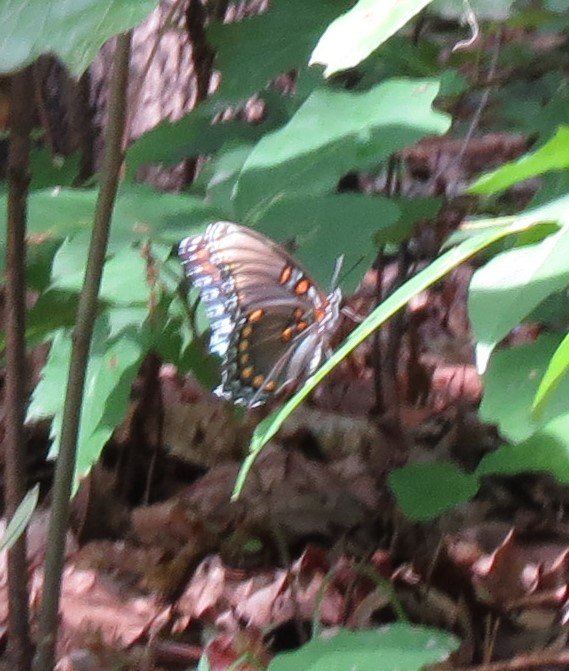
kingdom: Animalia
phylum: Arthropoda
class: Insecta
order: Lepidoptera
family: Nymphalidae
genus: Limenitis
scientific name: Limenitis astyanax
